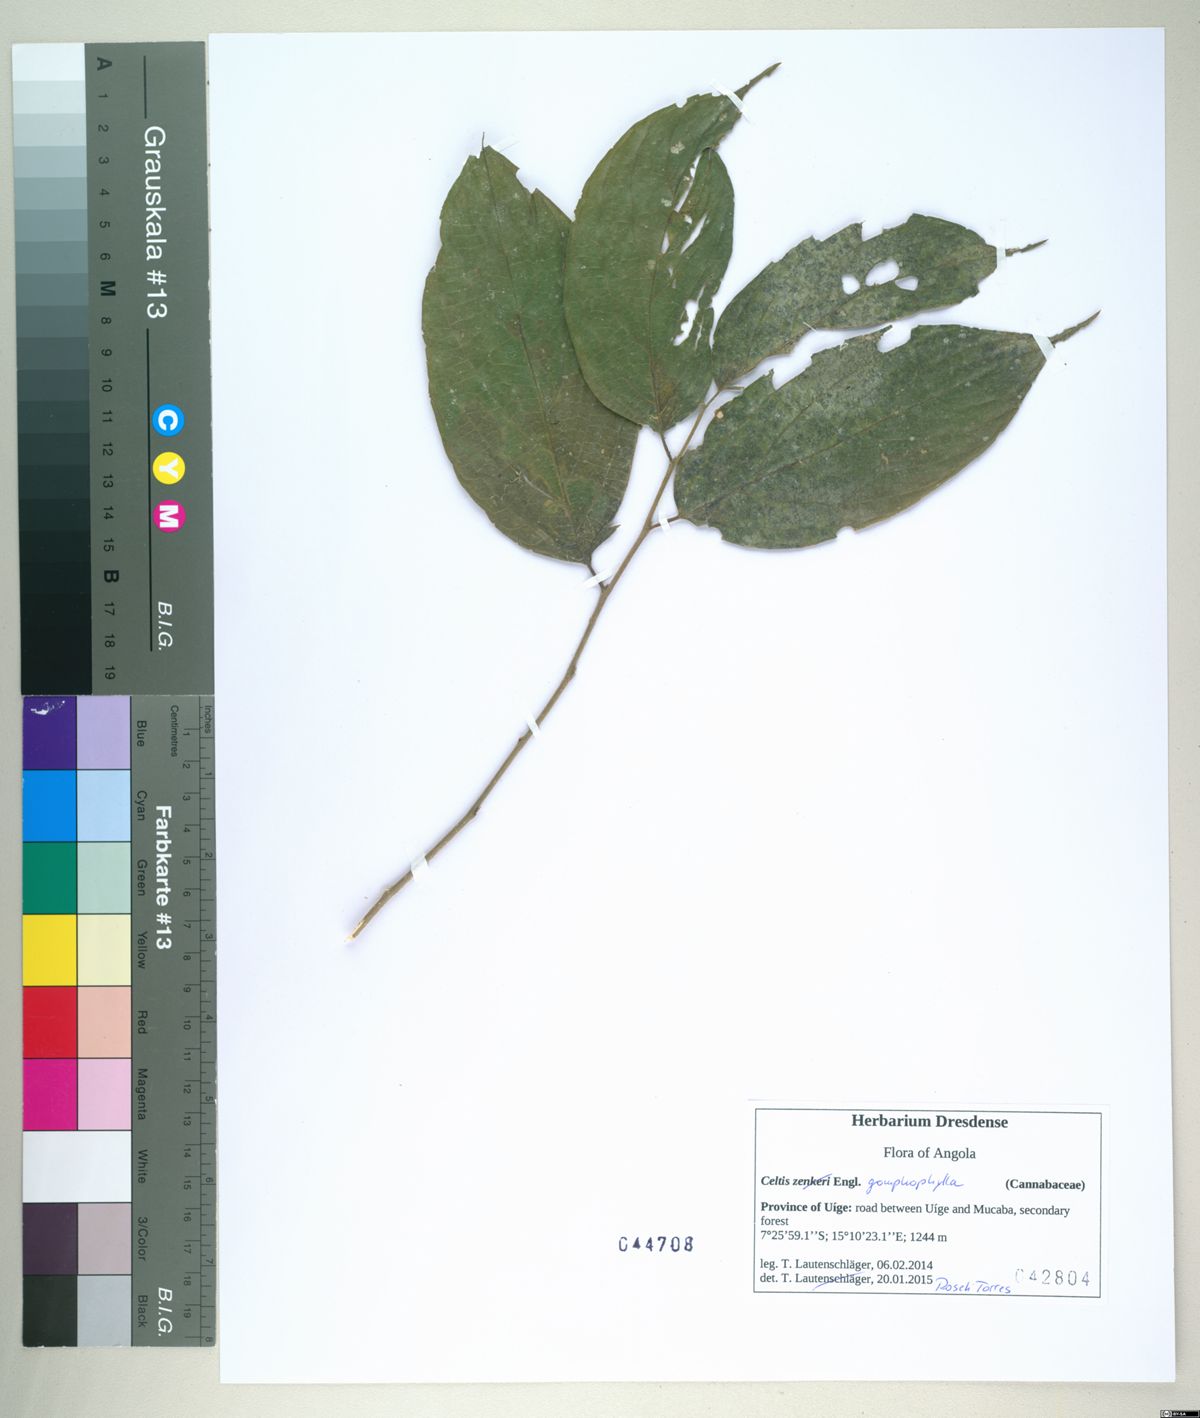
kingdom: Plantae
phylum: Tracheophyta
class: Magnoliopsida
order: Rosales
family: Cannabaceae
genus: Celtis
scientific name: Celtis gomphophylla
